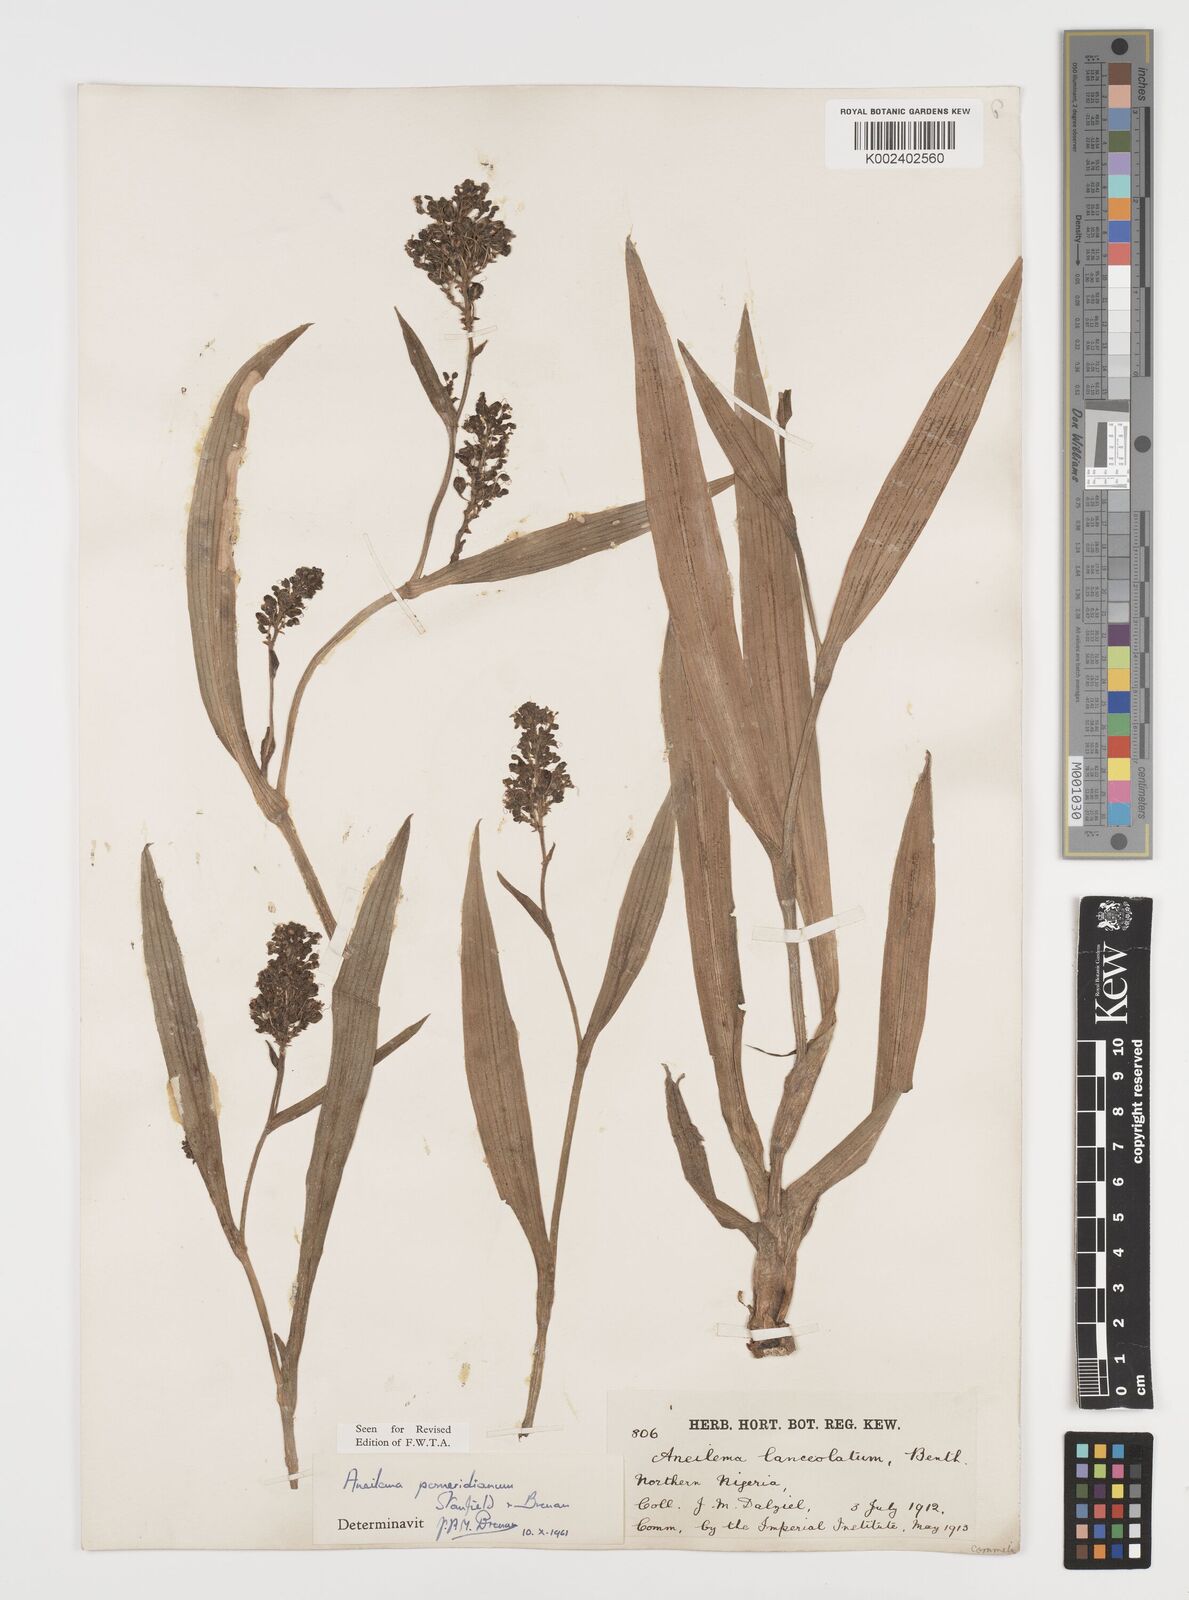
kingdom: Plantae
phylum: Tracheophyta
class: Liliopsida
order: Commelinales
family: Commelinaceae
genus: Aneilema
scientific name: Aneilema pomeridianum
